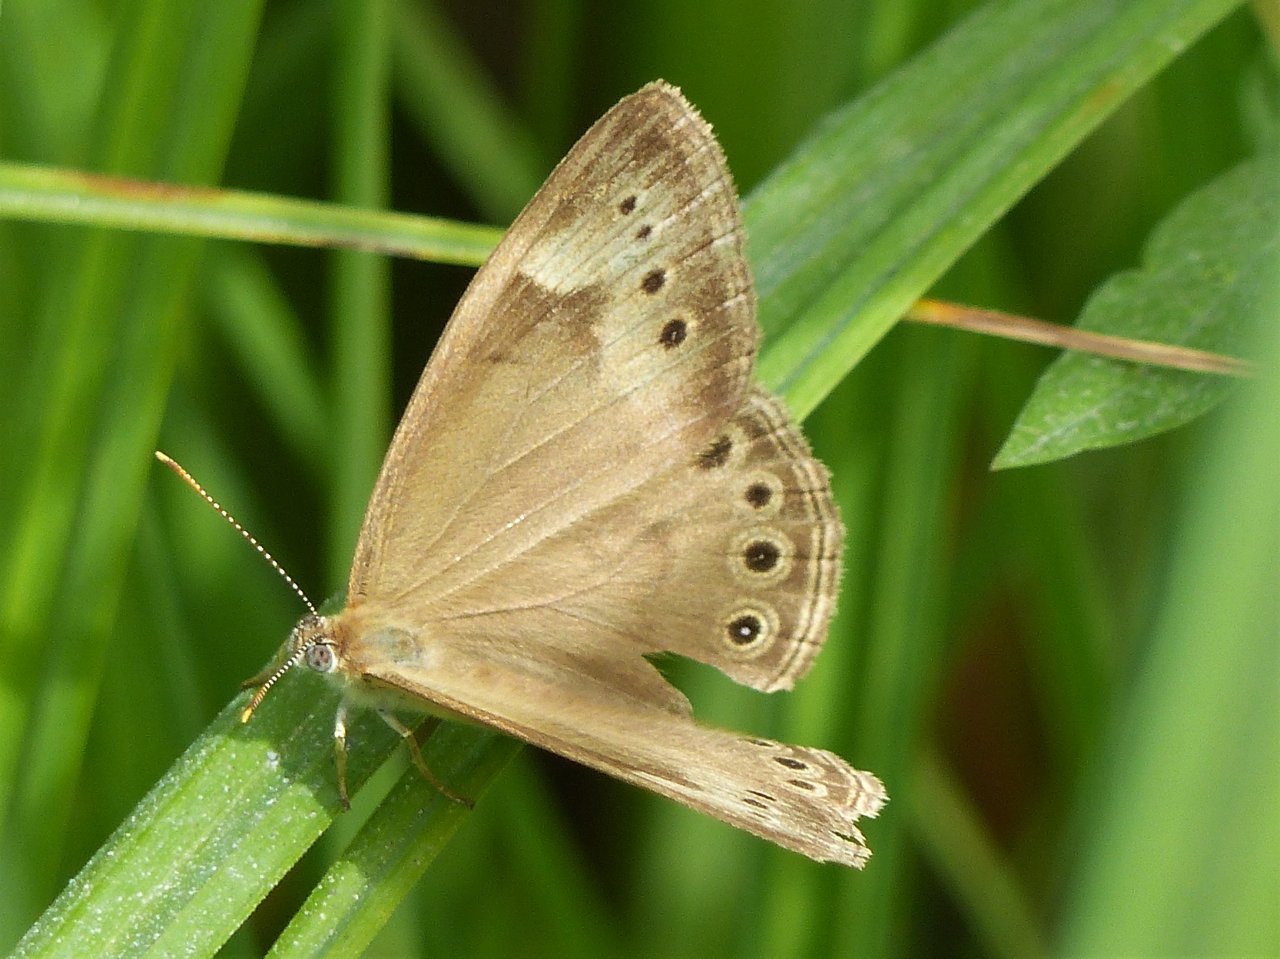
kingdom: Animalia
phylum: Arthropoda
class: Insecta
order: Lepidoptera
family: Nymphalidae
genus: Lethe
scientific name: Lethe eurydice
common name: Eyed Brown
